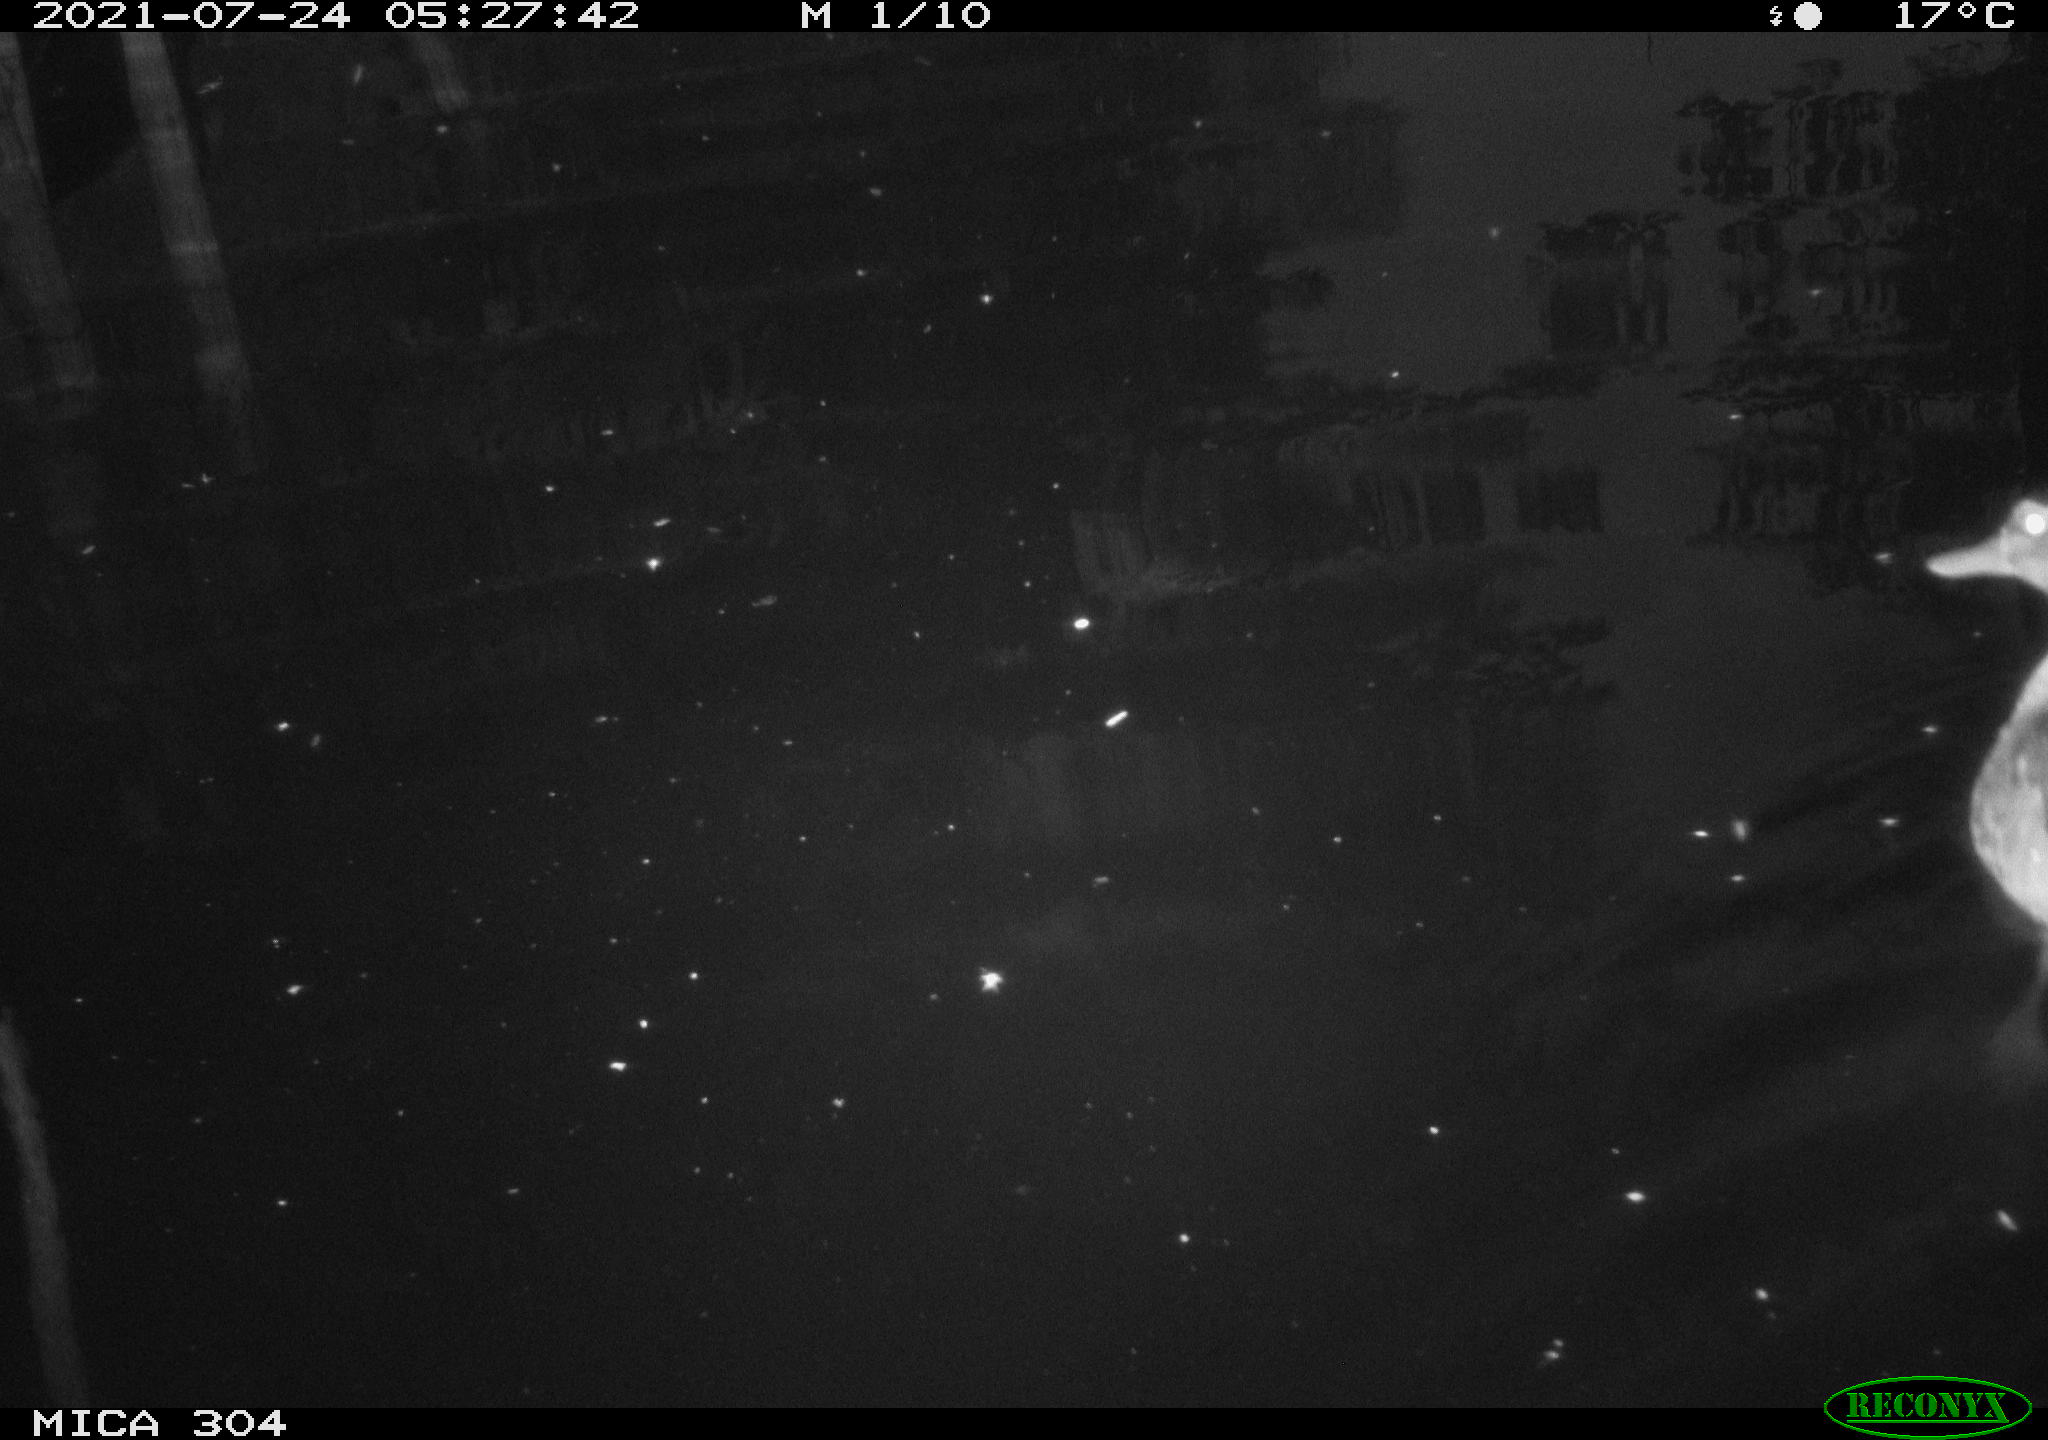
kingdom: Animalia
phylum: Chordata
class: Aves
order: Anseriformes
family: Anatidae
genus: Mareca
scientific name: Mareca strepera
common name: Gadwall
